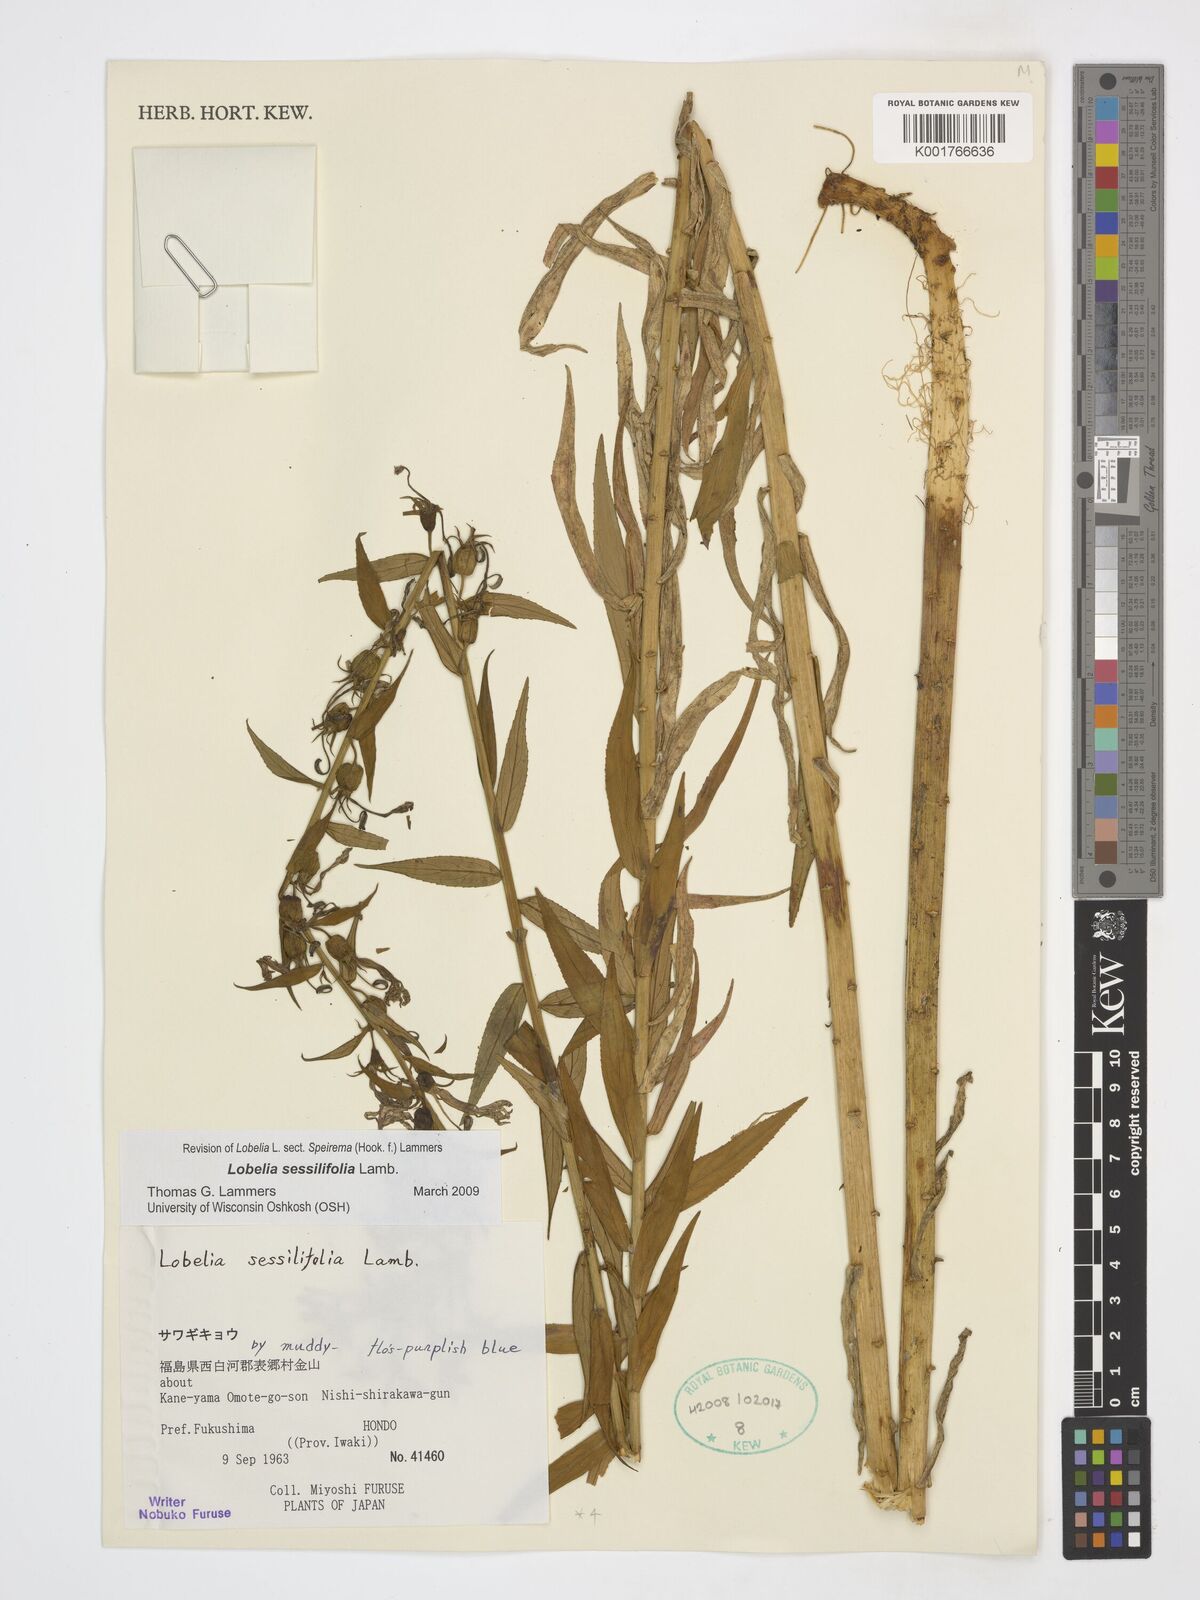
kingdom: Plantae
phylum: Tracheophyta
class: Magnoliopsida
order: Asterales
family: Campanulaceae
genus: Lobelia
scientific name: Lobelia sessilifolia
